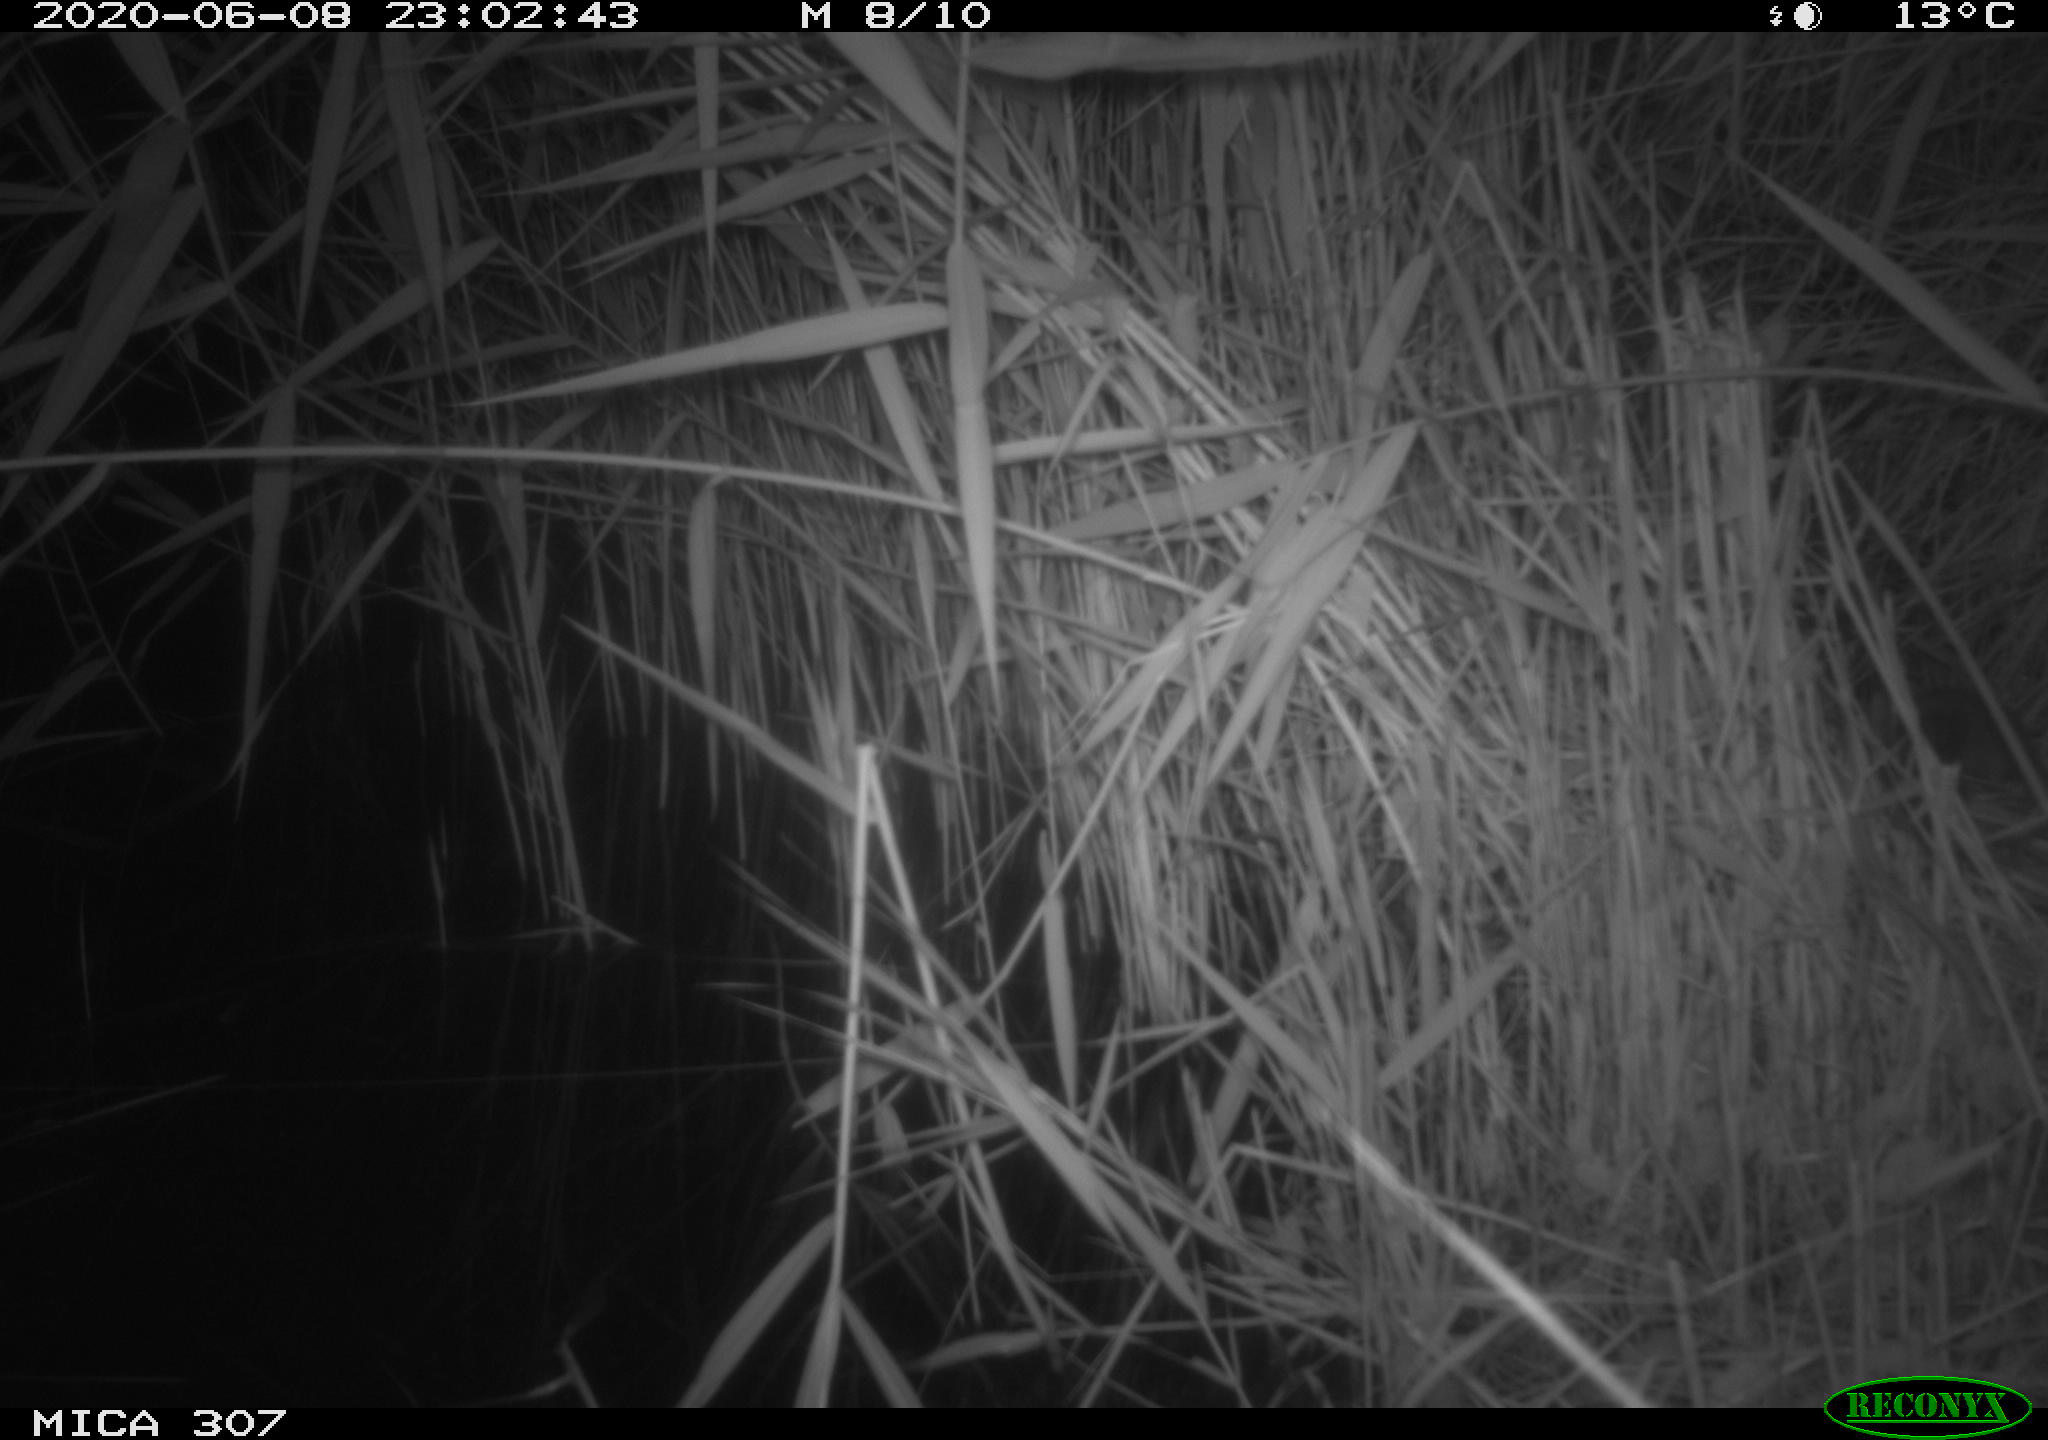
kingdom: Animalia
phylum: Chordata
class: Mammalia
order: Rodentia
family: Muridae
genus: Rattus
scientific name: Rattus norvegicus
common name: Brown rat
